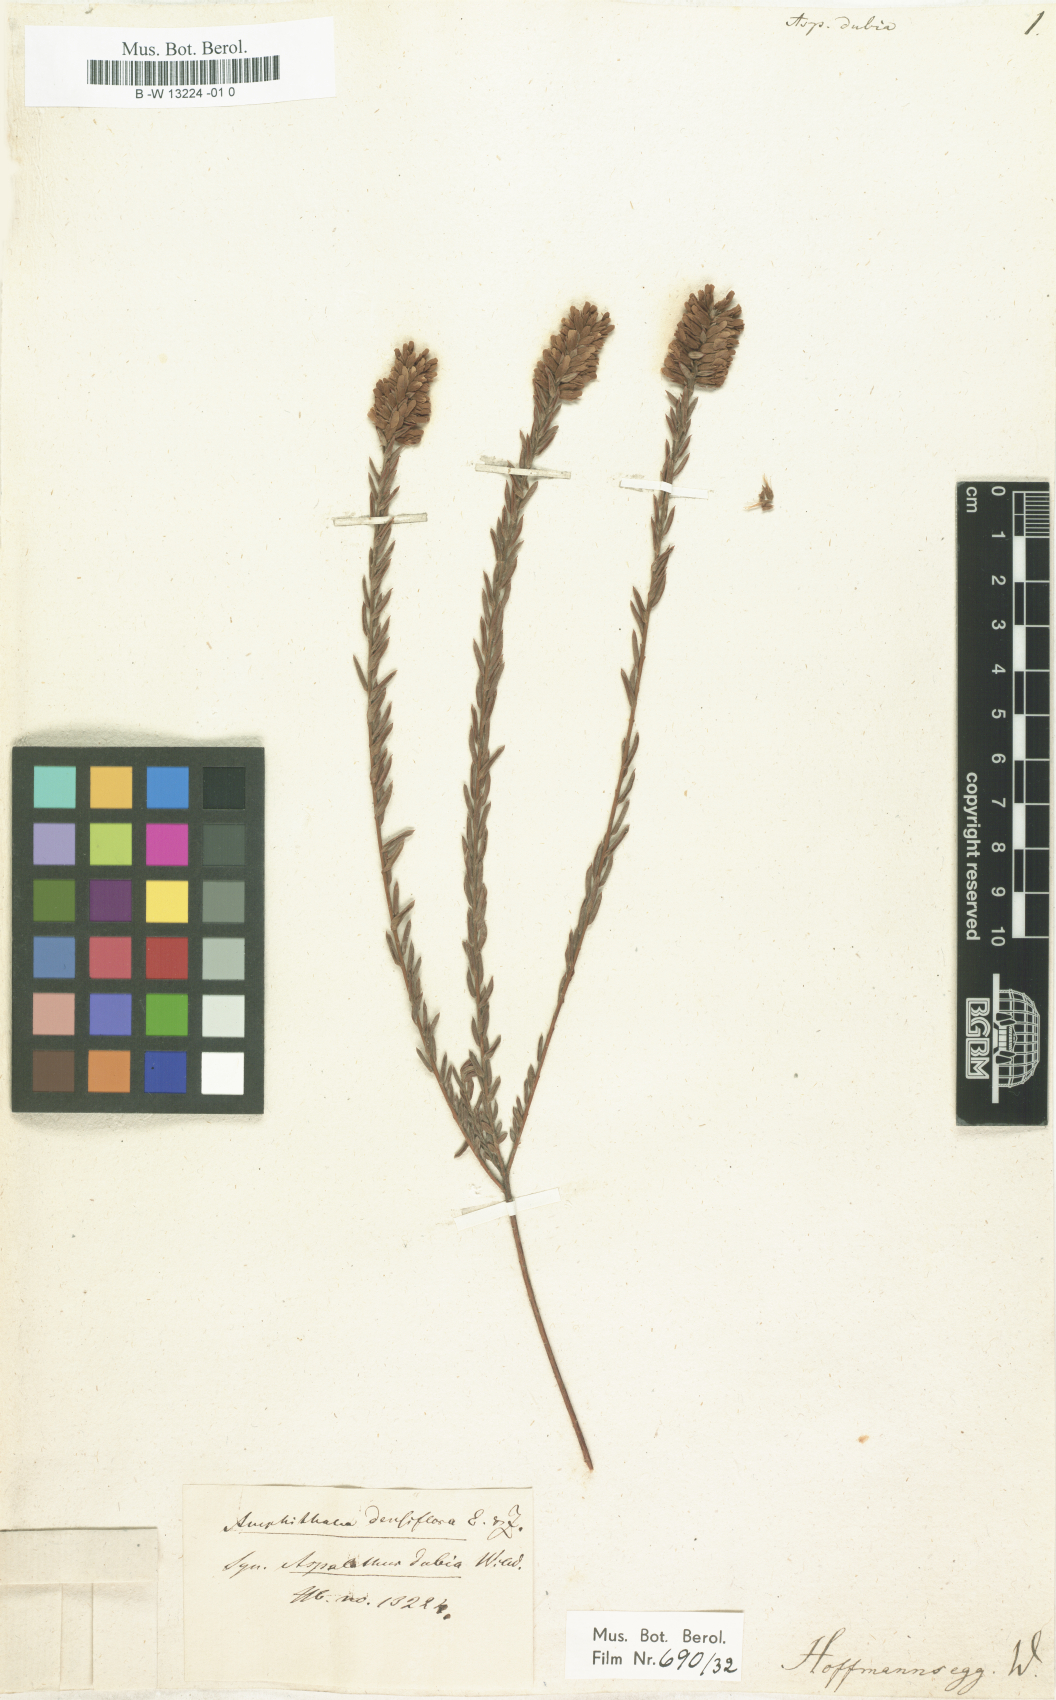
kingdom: Plantae
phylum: Tracheophyta
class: Magnoliopsida
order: Fabales
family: Fabaceae
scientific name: Fabaceae
